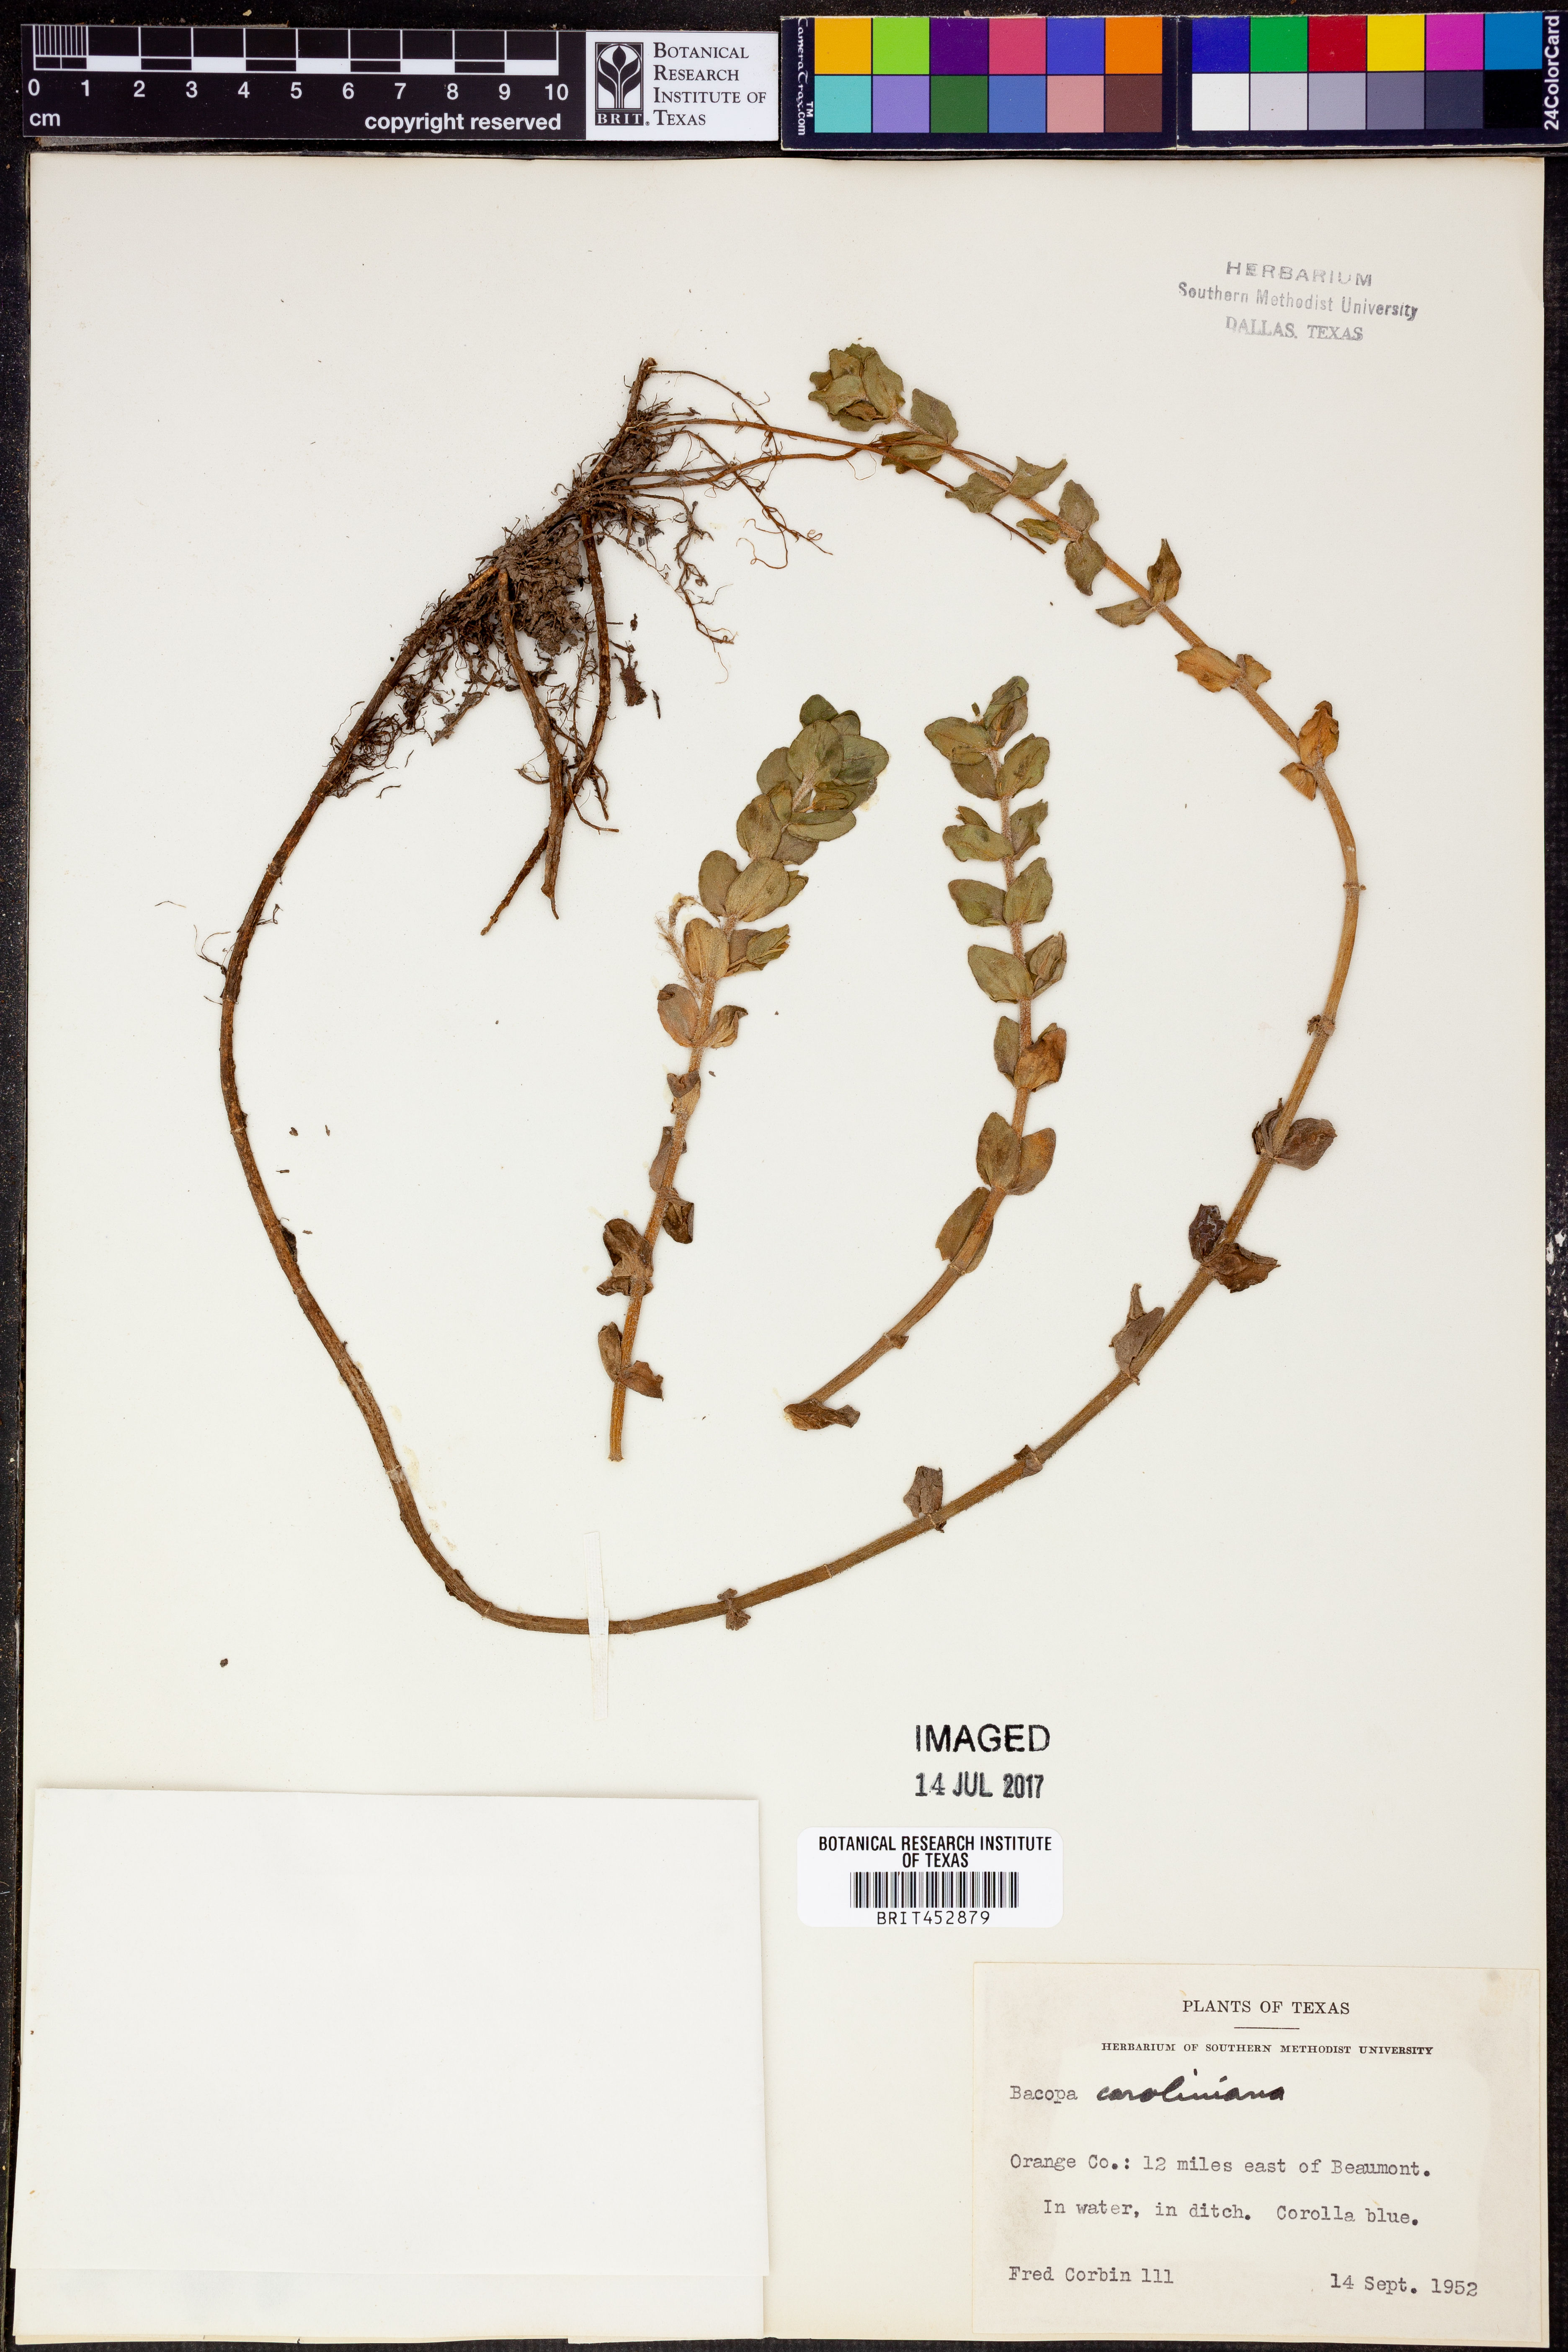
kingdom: Plantae
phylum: Tracheophyta
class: Magnoliopsida
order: Lamiales
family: Plantaginaceae
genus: Bacopa
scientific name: Bacopa caroliniana
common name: Lemon bacopa
